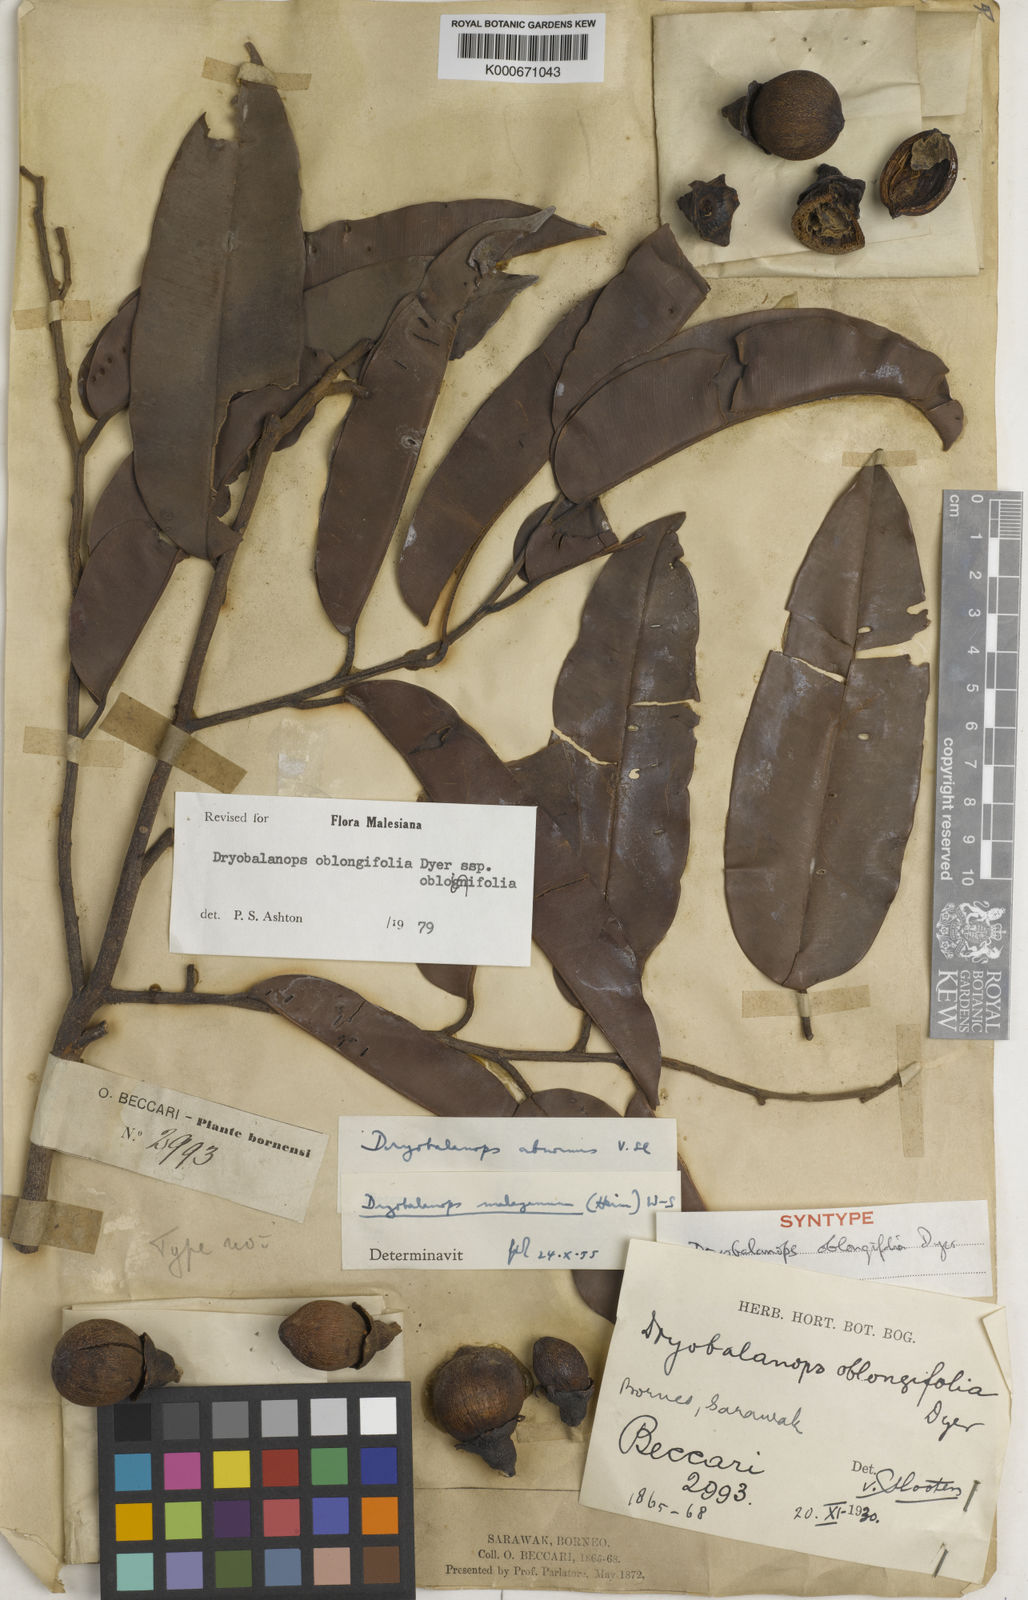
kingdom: Plantae
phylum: Tracheophyta
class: Magnoliopsida
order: Malvales
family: Dipterocarpaceae
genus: Dryobalanops
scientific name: Dryobalanops oblongifolia
